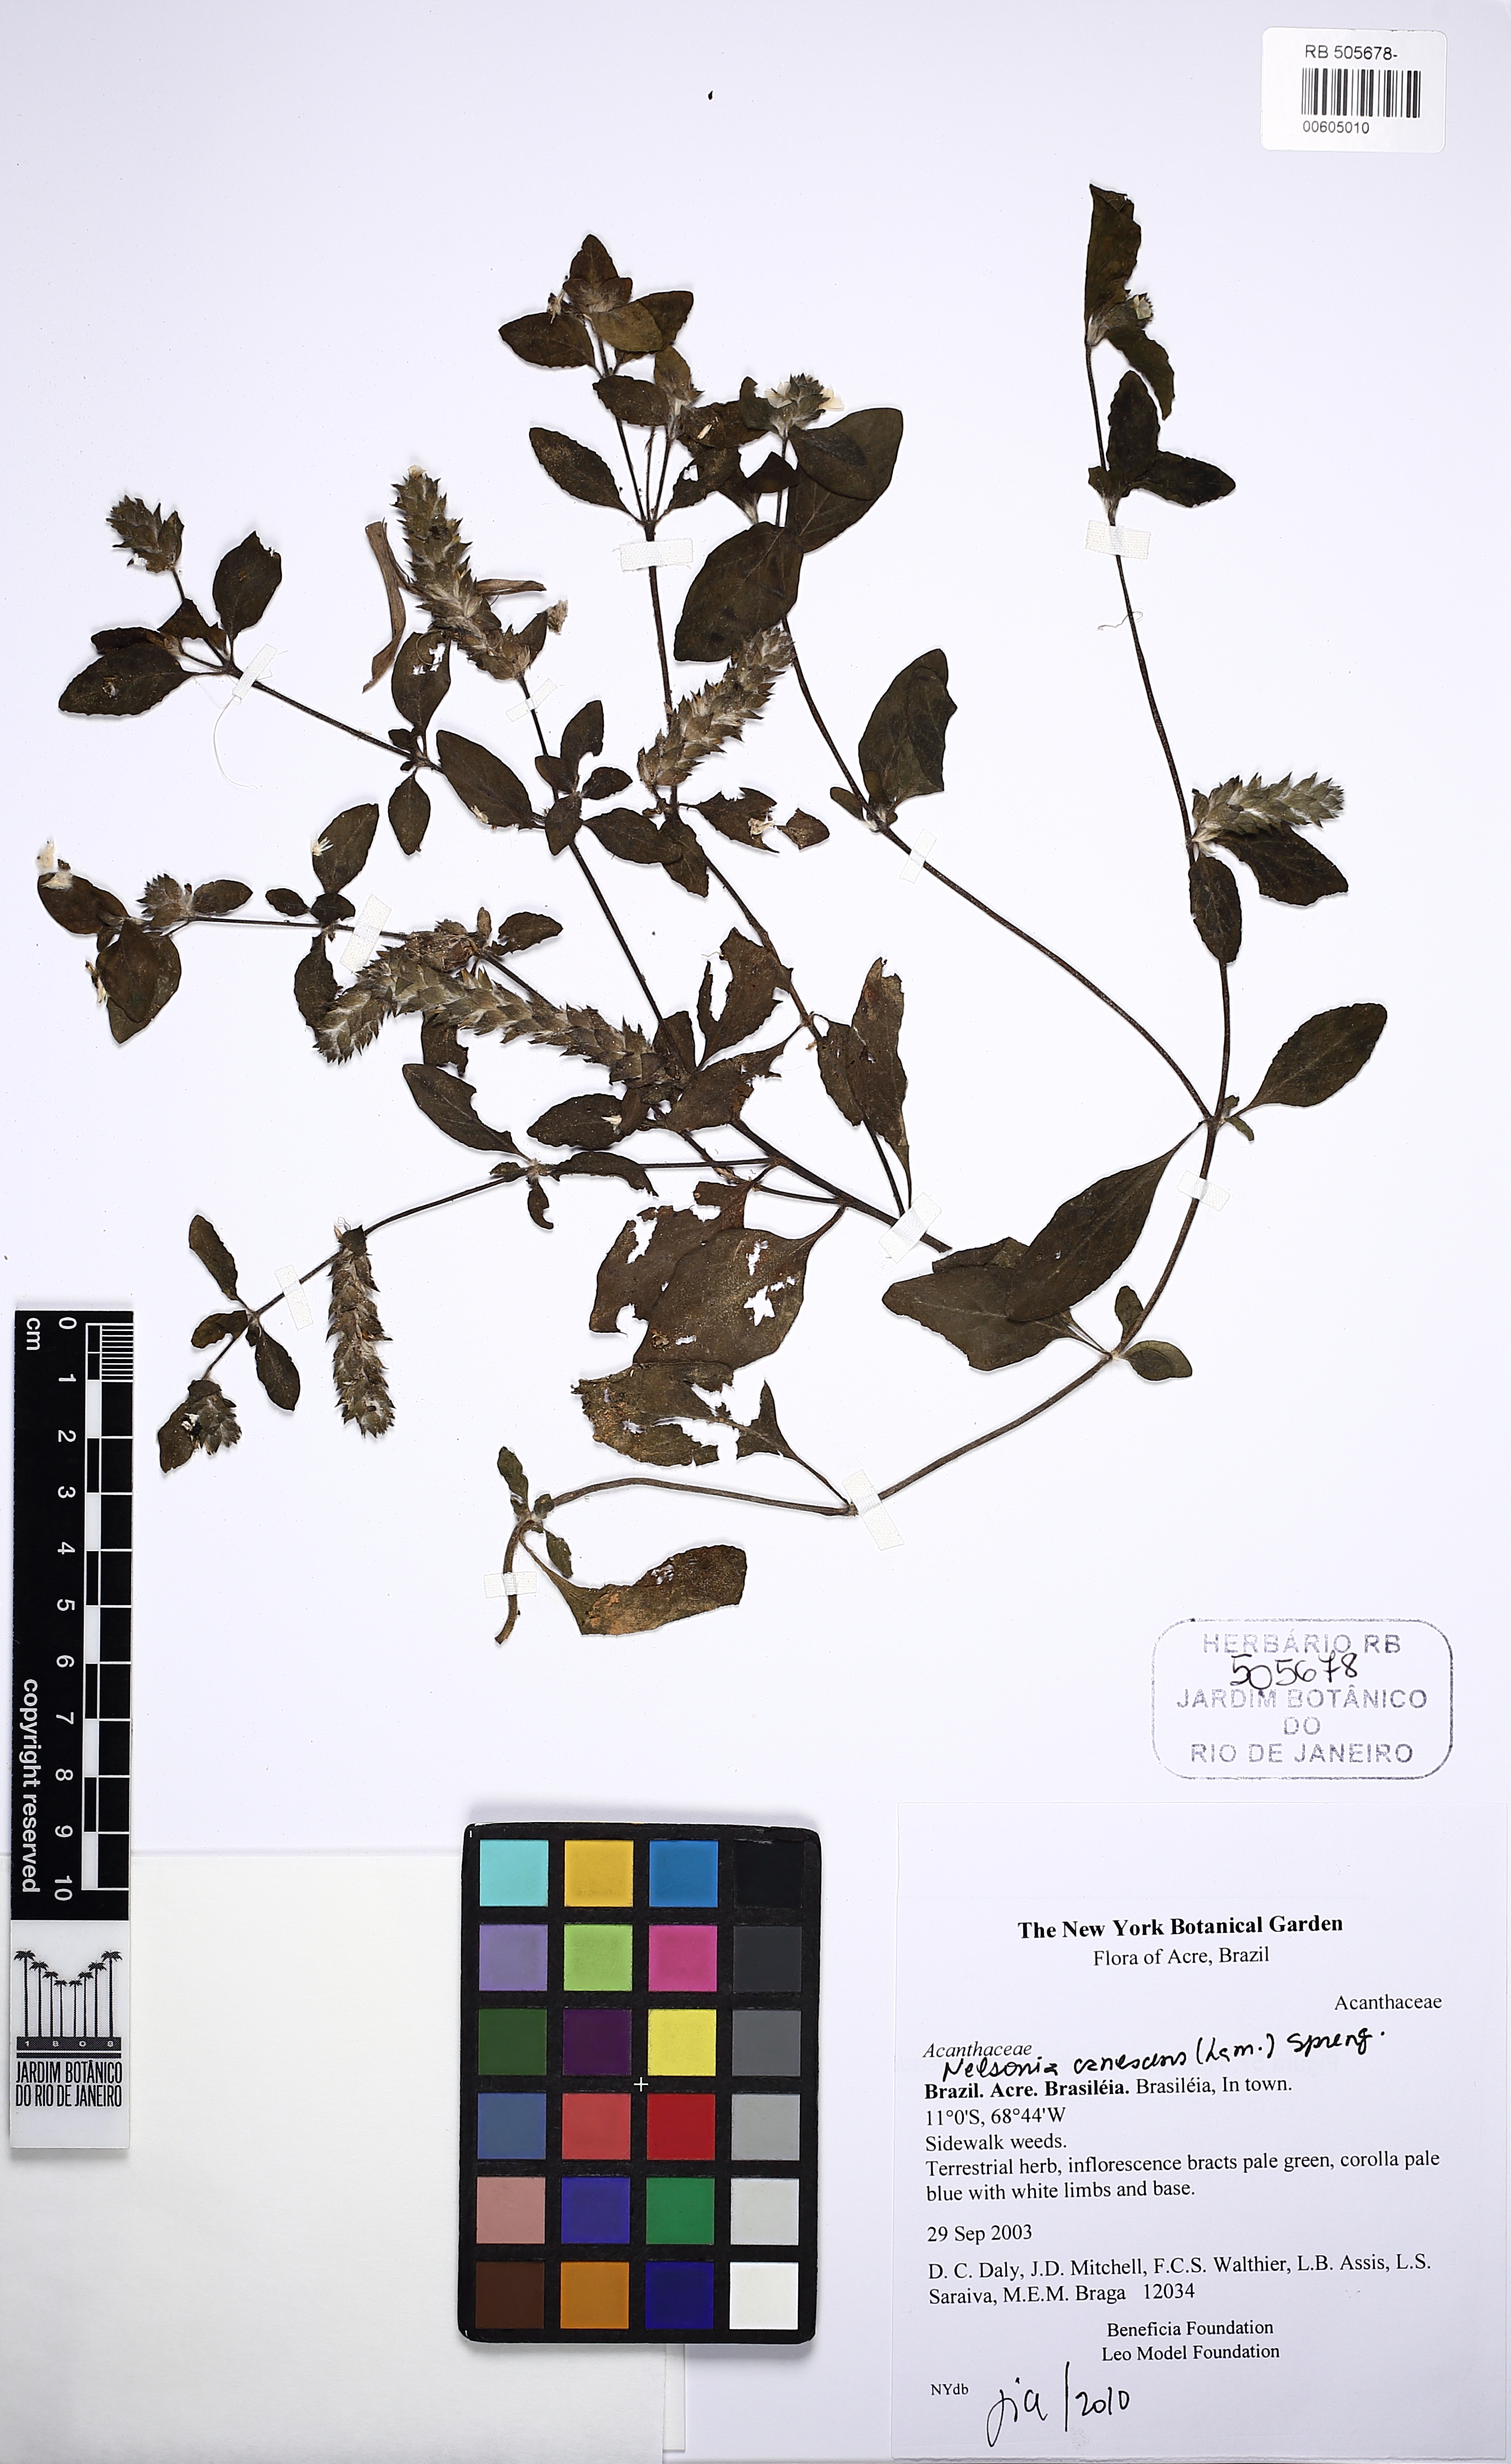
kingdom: Plantae
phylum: Tracheophyta
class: Magnoliopsida
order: Lamiales
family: Acanthaceae
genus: Nelsonia
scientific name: Nelsonia canescens
